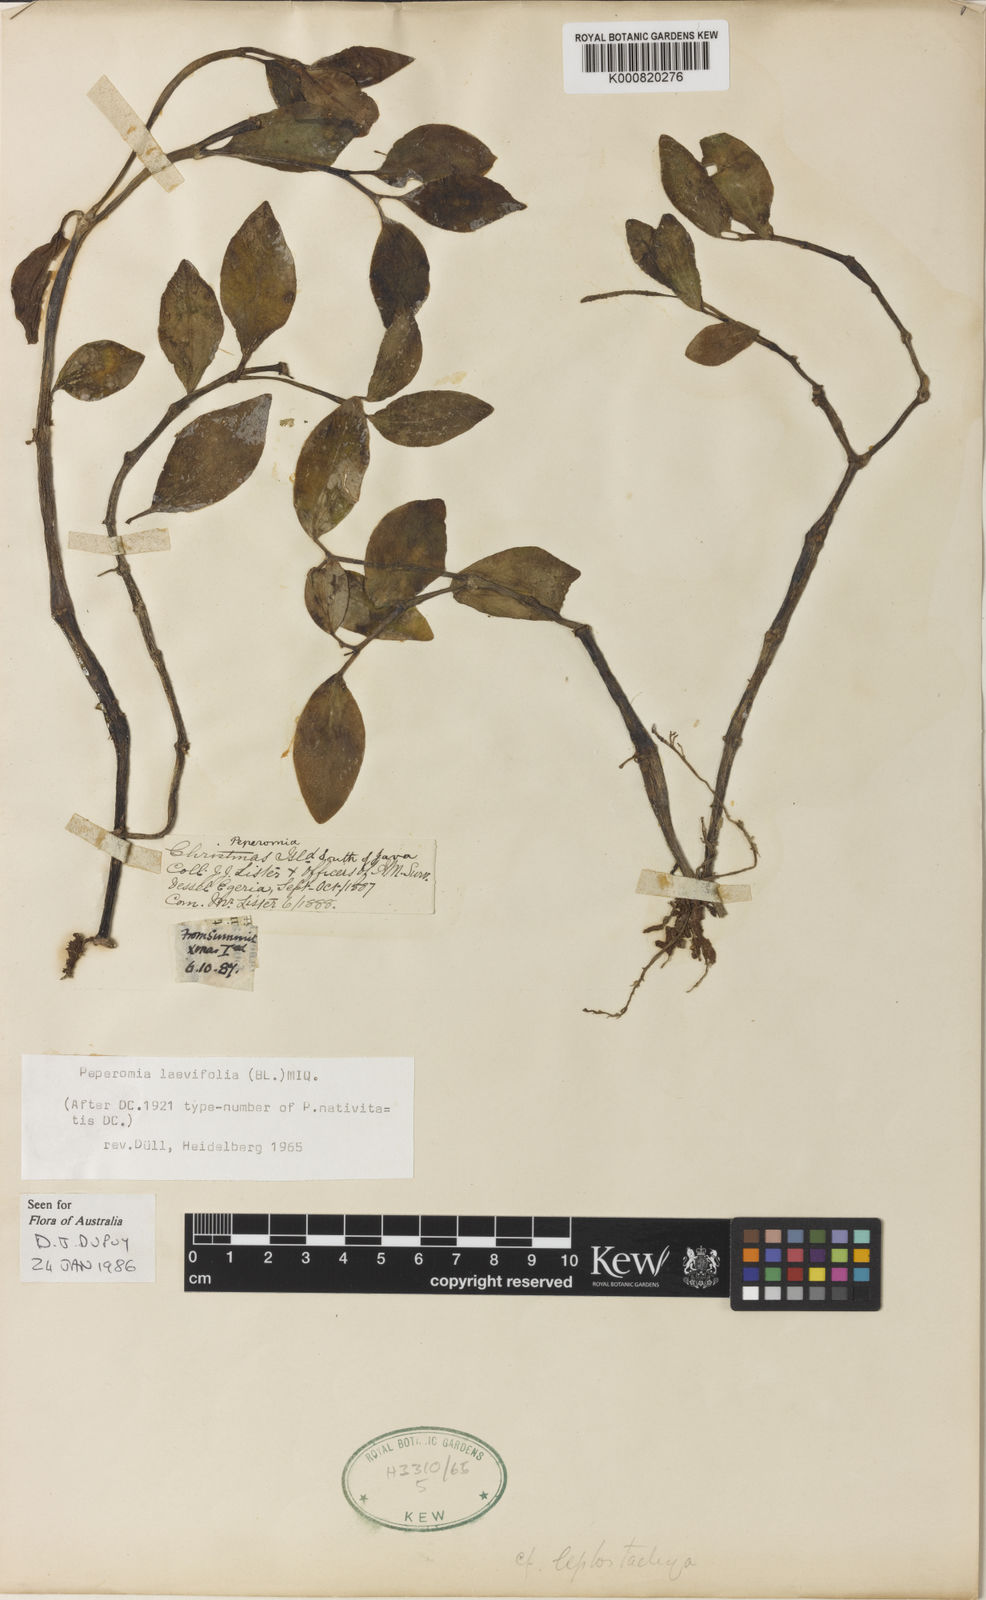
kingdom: Plantae
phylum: Tracheophyta
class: Magnoliopsida
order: Piperales
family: Piperaceae
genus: Peperomia
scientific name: Peperomia laevifolia
